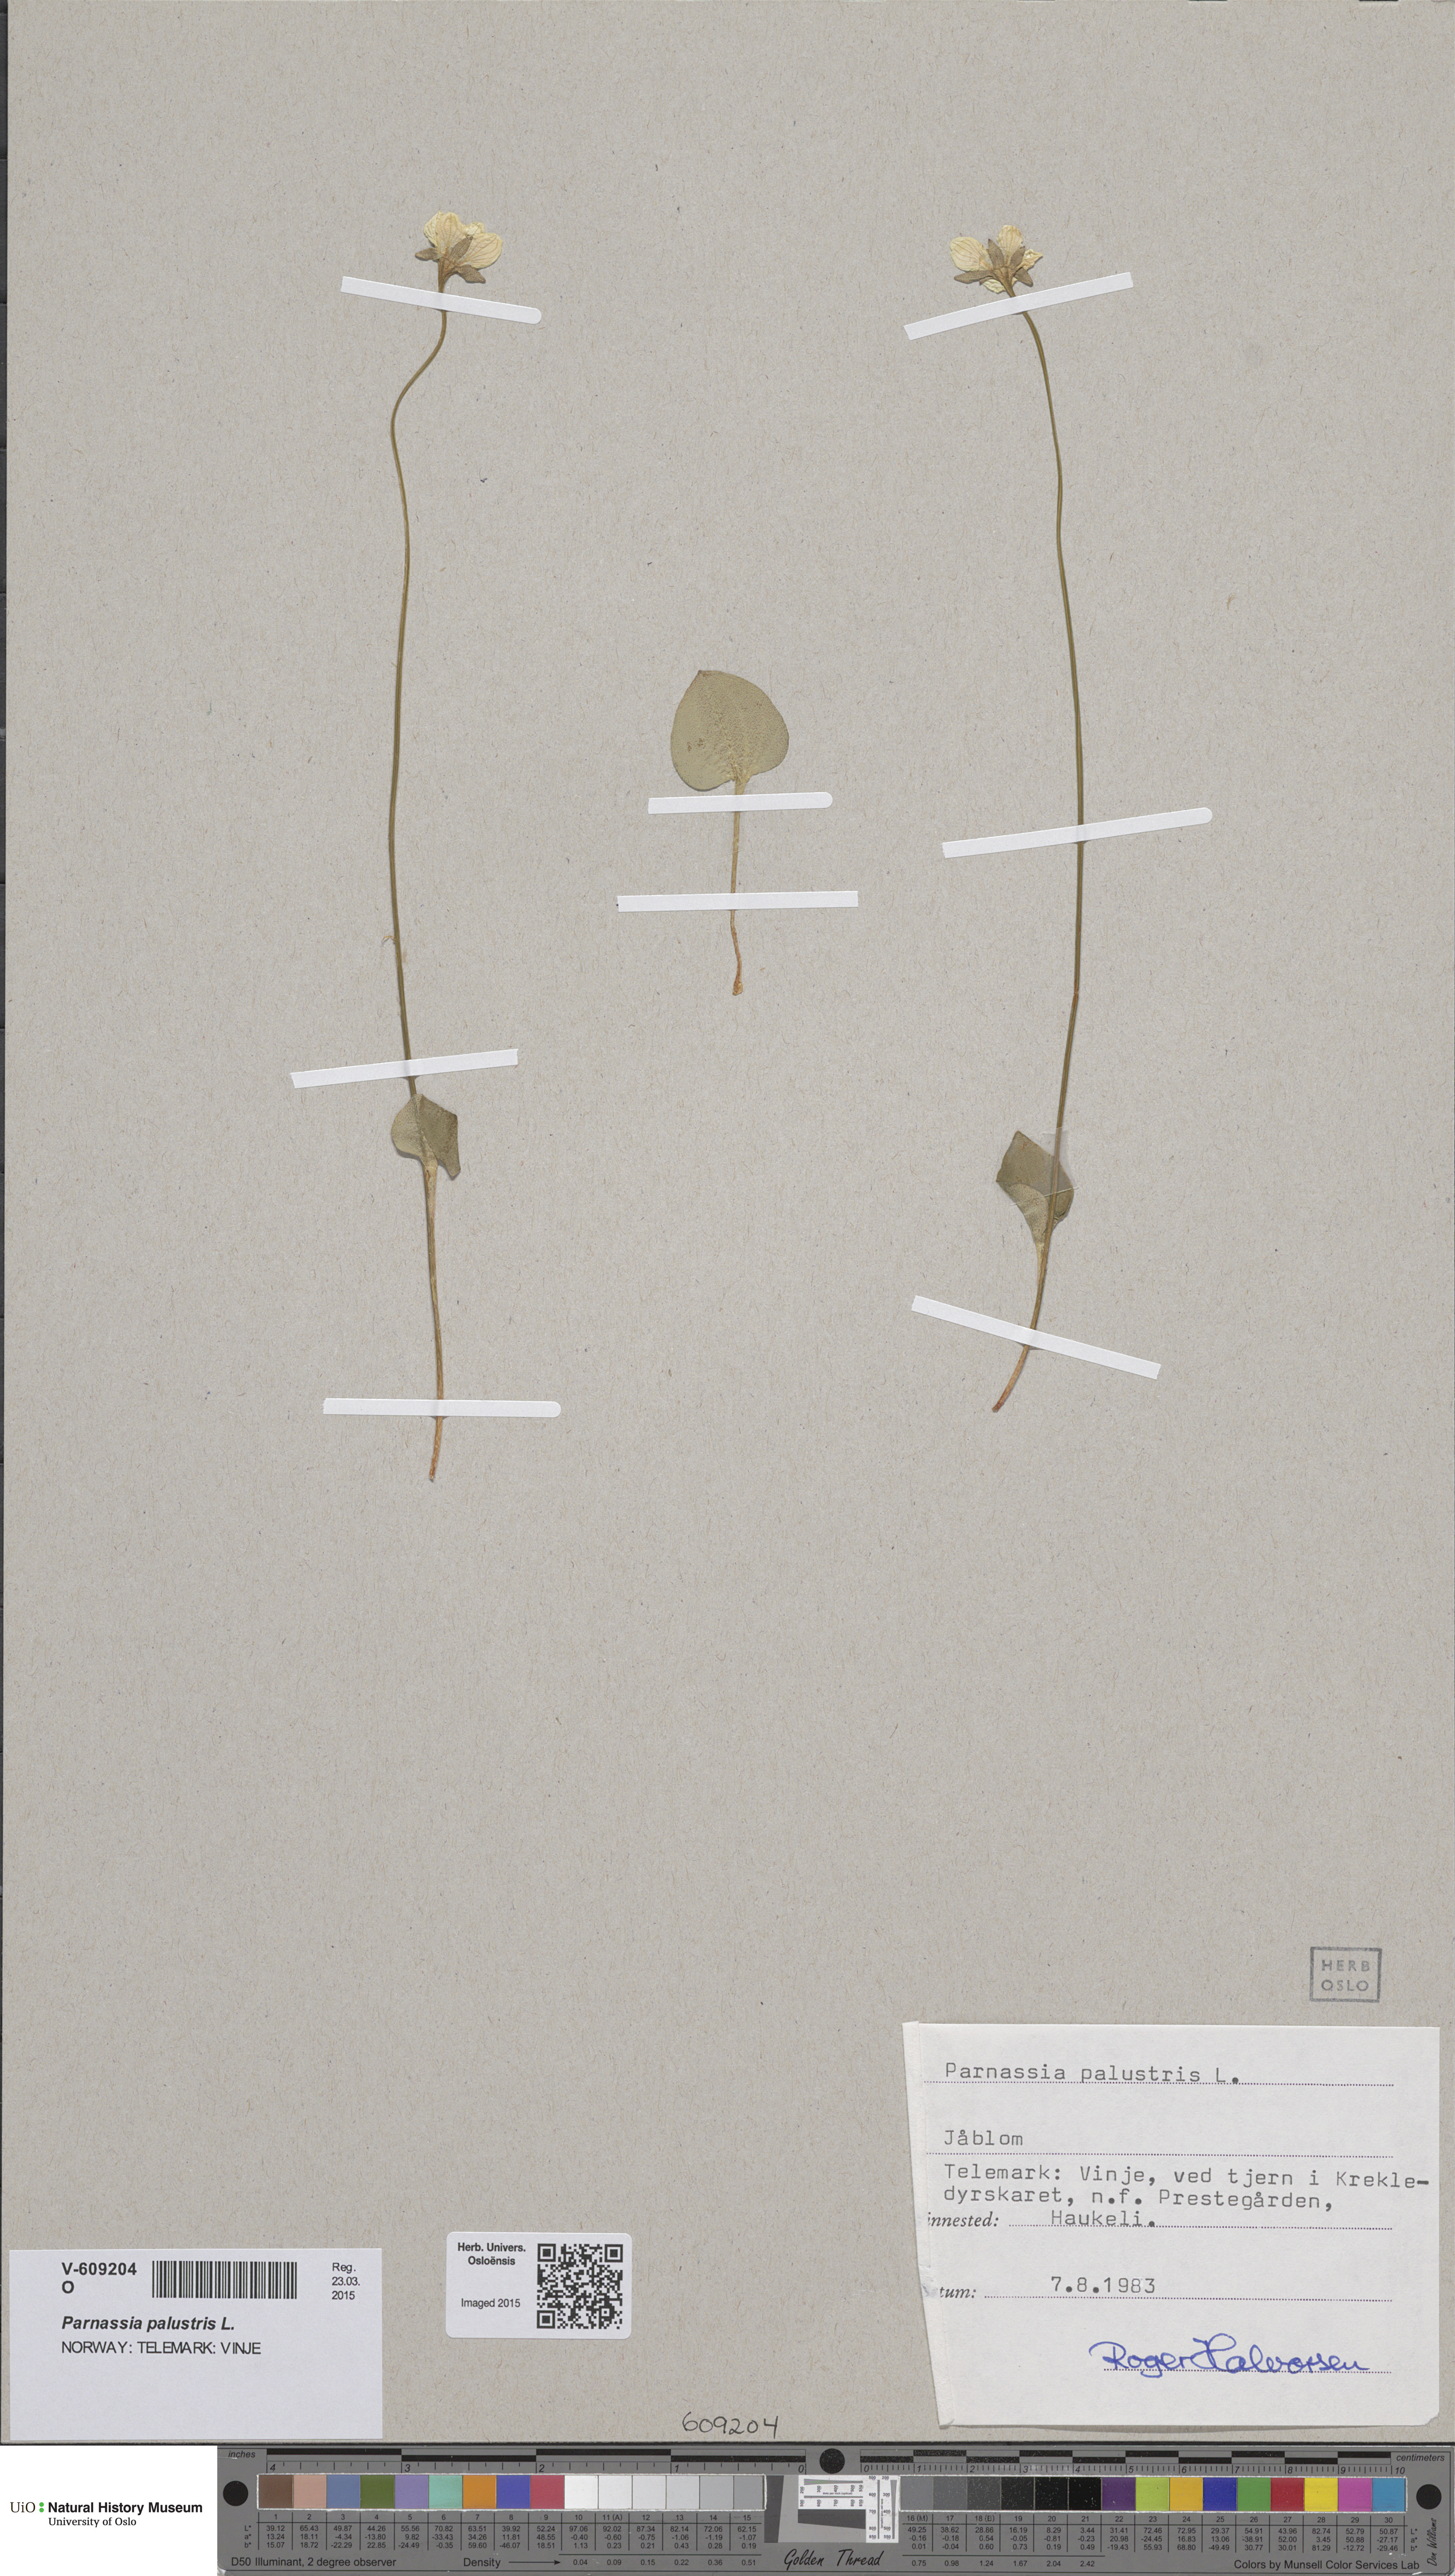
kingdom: Plantae
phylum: Tracheophyta
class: Magnoliopsida
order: Celastrales
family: Parnassiaceae
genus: Parnassia
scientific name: Parnassia palustris
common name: Grass-of-parnassus
